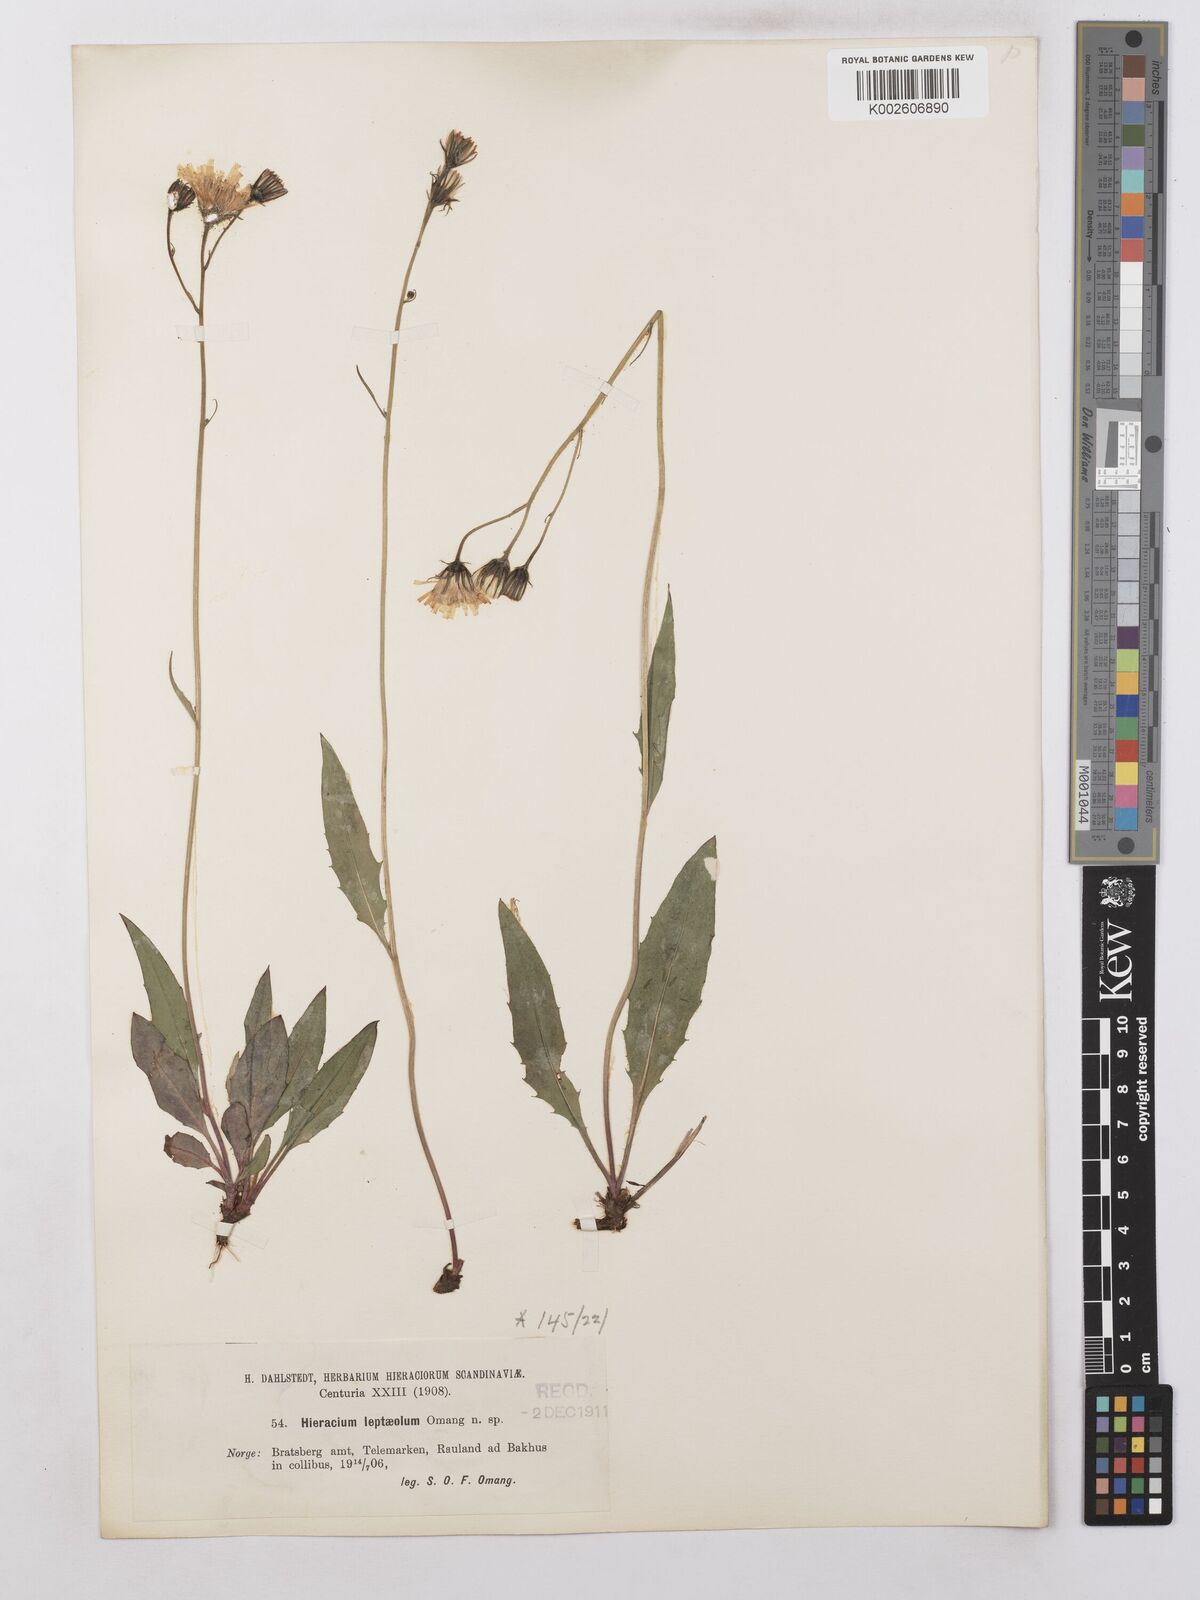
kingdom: Plantae
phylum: Tracheophyta
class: Magnoliopsida
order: Asterales
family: Asteraceae
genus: Hieracium
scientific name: Hieracium levicaule
